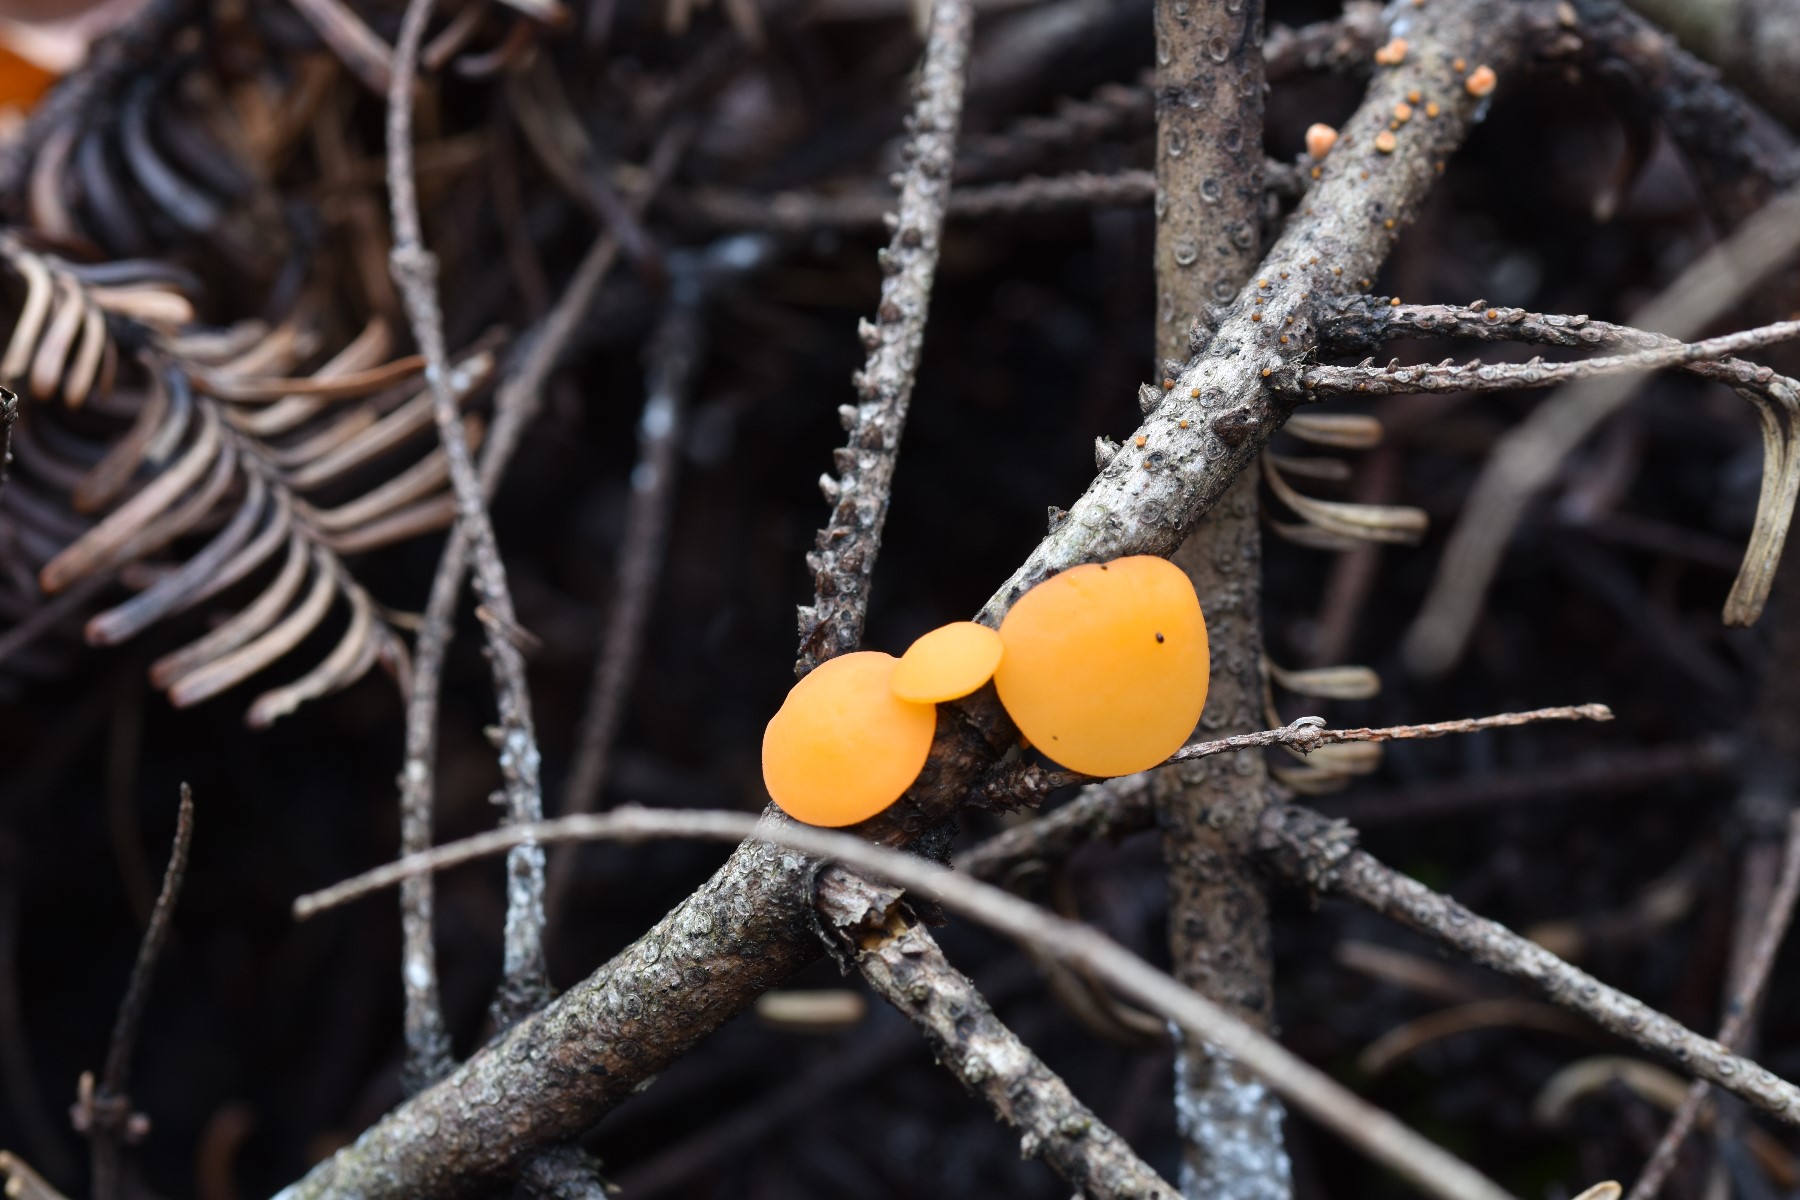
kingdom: Fungi
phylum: Ascomycota
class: Pezizomycetes
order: Pezizales
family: Sarcoscyphaceae
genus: Pithya
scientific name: Pithya vulgaris
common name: stor dukatbæger
